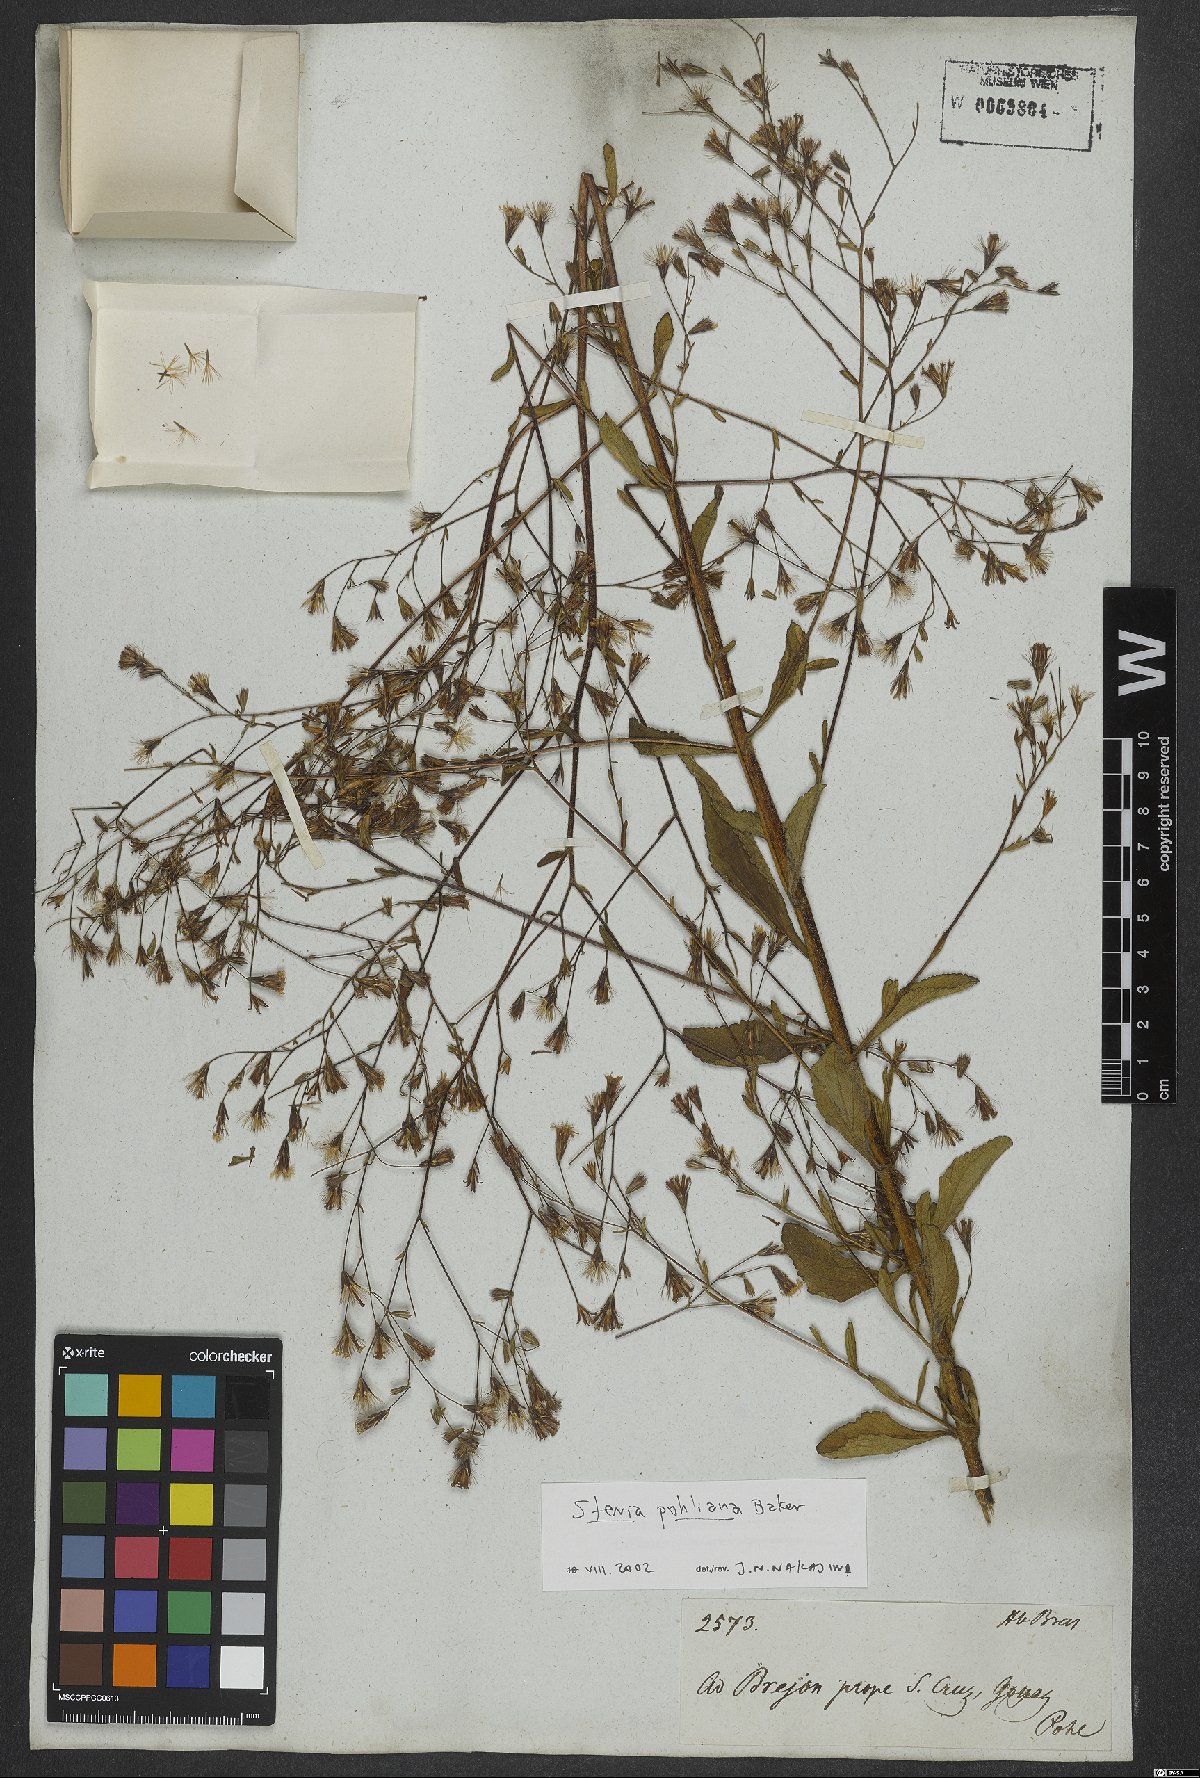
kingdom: Plantae
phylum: Tracheophyta
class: Magnoliopsida
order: Asterales
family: Asteraceae
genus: Stevia
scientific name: Stevia pohliana
